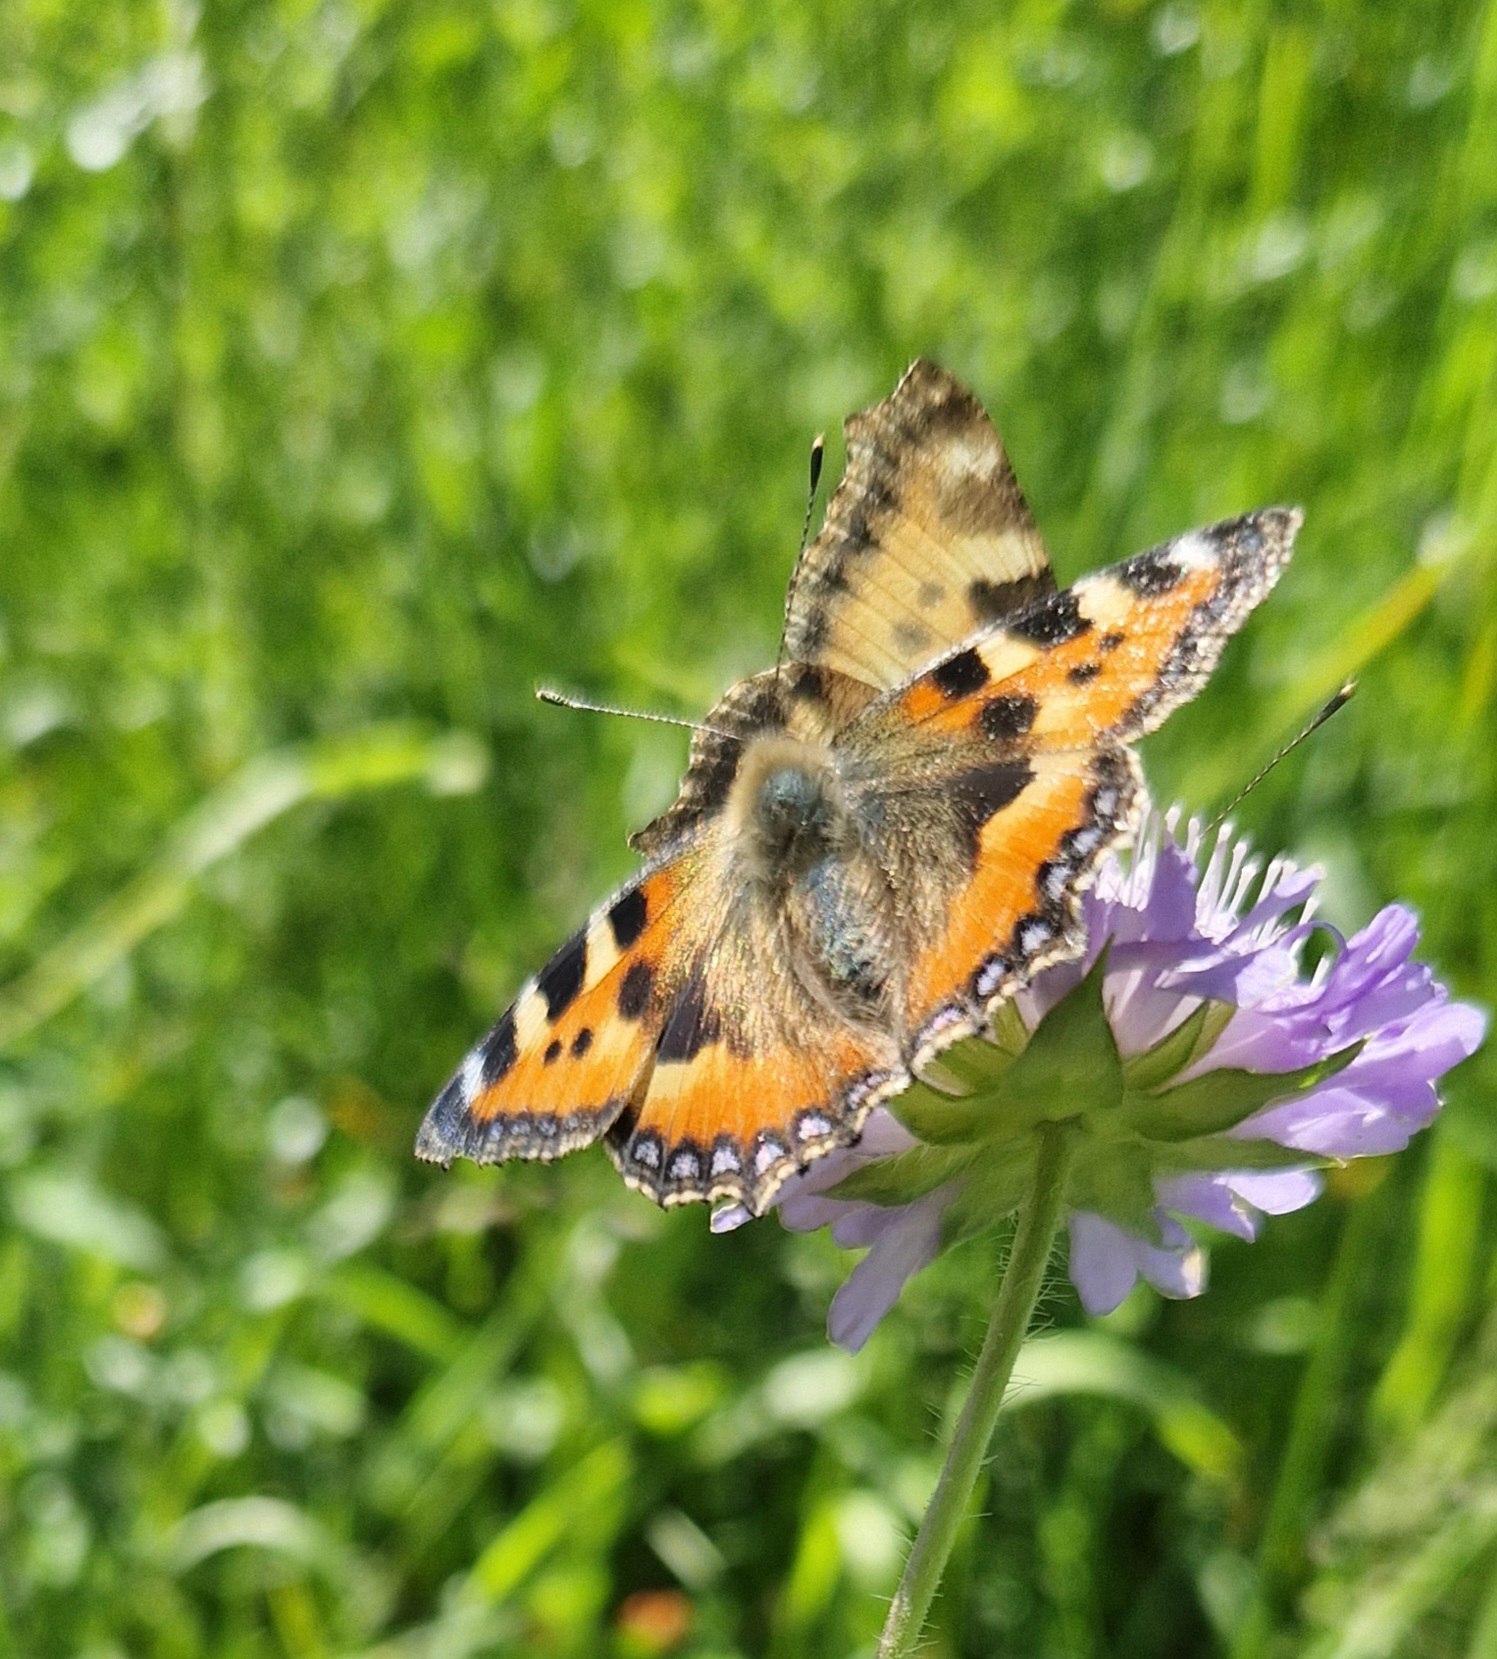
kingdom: Animalia
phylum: Arthropoda
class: Insecta
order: Lepidoptera
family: Nymphalidae
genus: Aglais
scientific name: Aglais urticae
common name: Nældens takvinge
